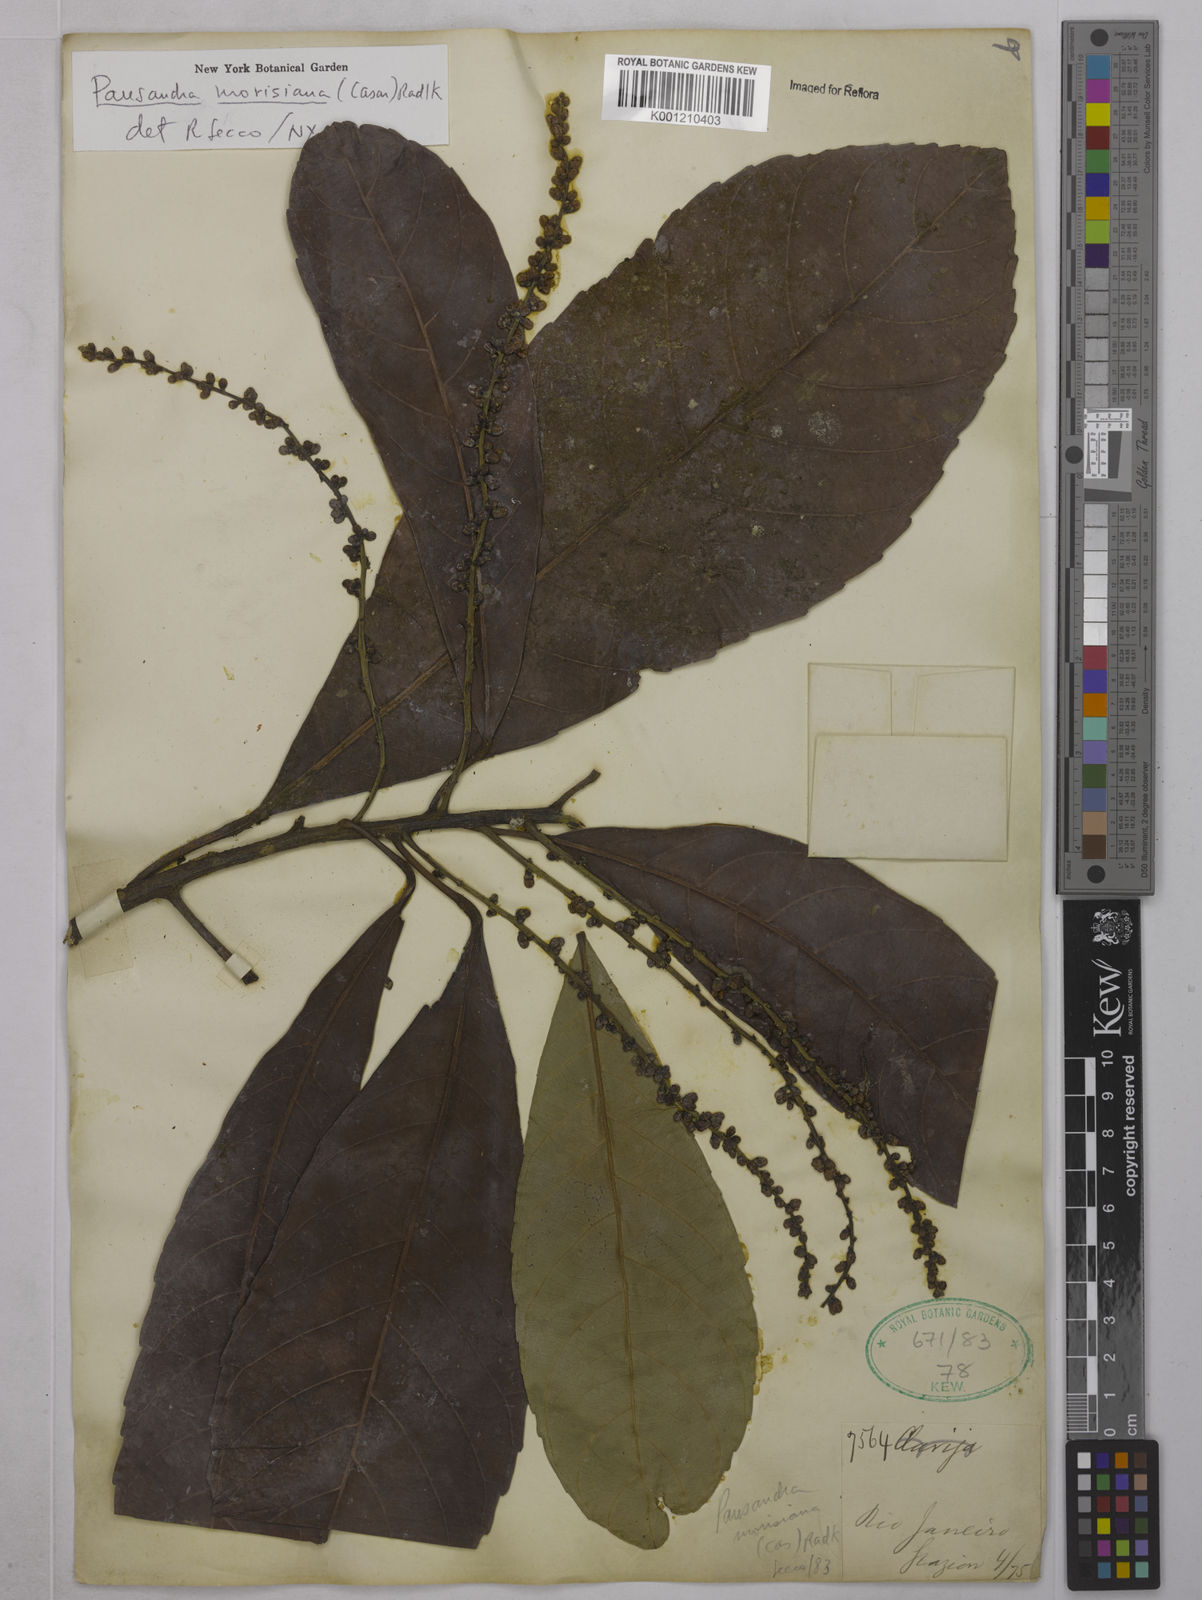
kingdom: Plantae
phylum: Tracheophyta
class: Magnoliopsida
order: Malpighiales
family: Euphorbiaceae
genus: Pausandra
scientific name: Pausandra morisiana
